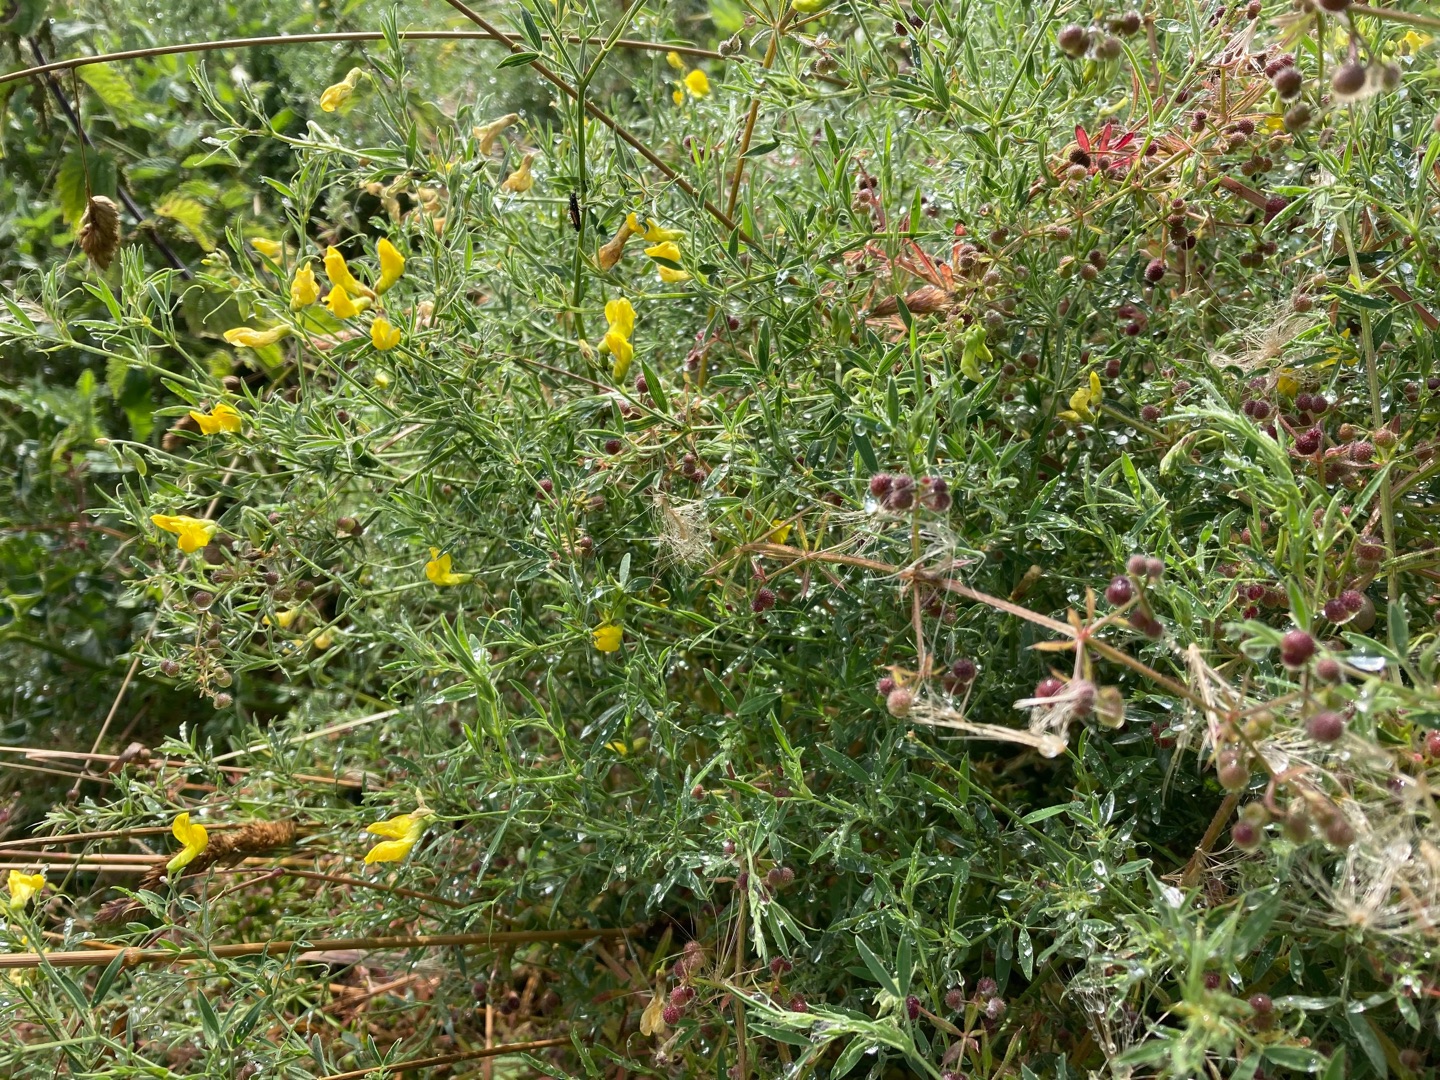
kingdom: Plantae
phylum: Tracheophyta
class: Magnoliopsida
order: Fabales
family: Fabaceae
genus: Lathyrus
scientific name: Lathyrus pratensis
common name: Gul fladbælg
